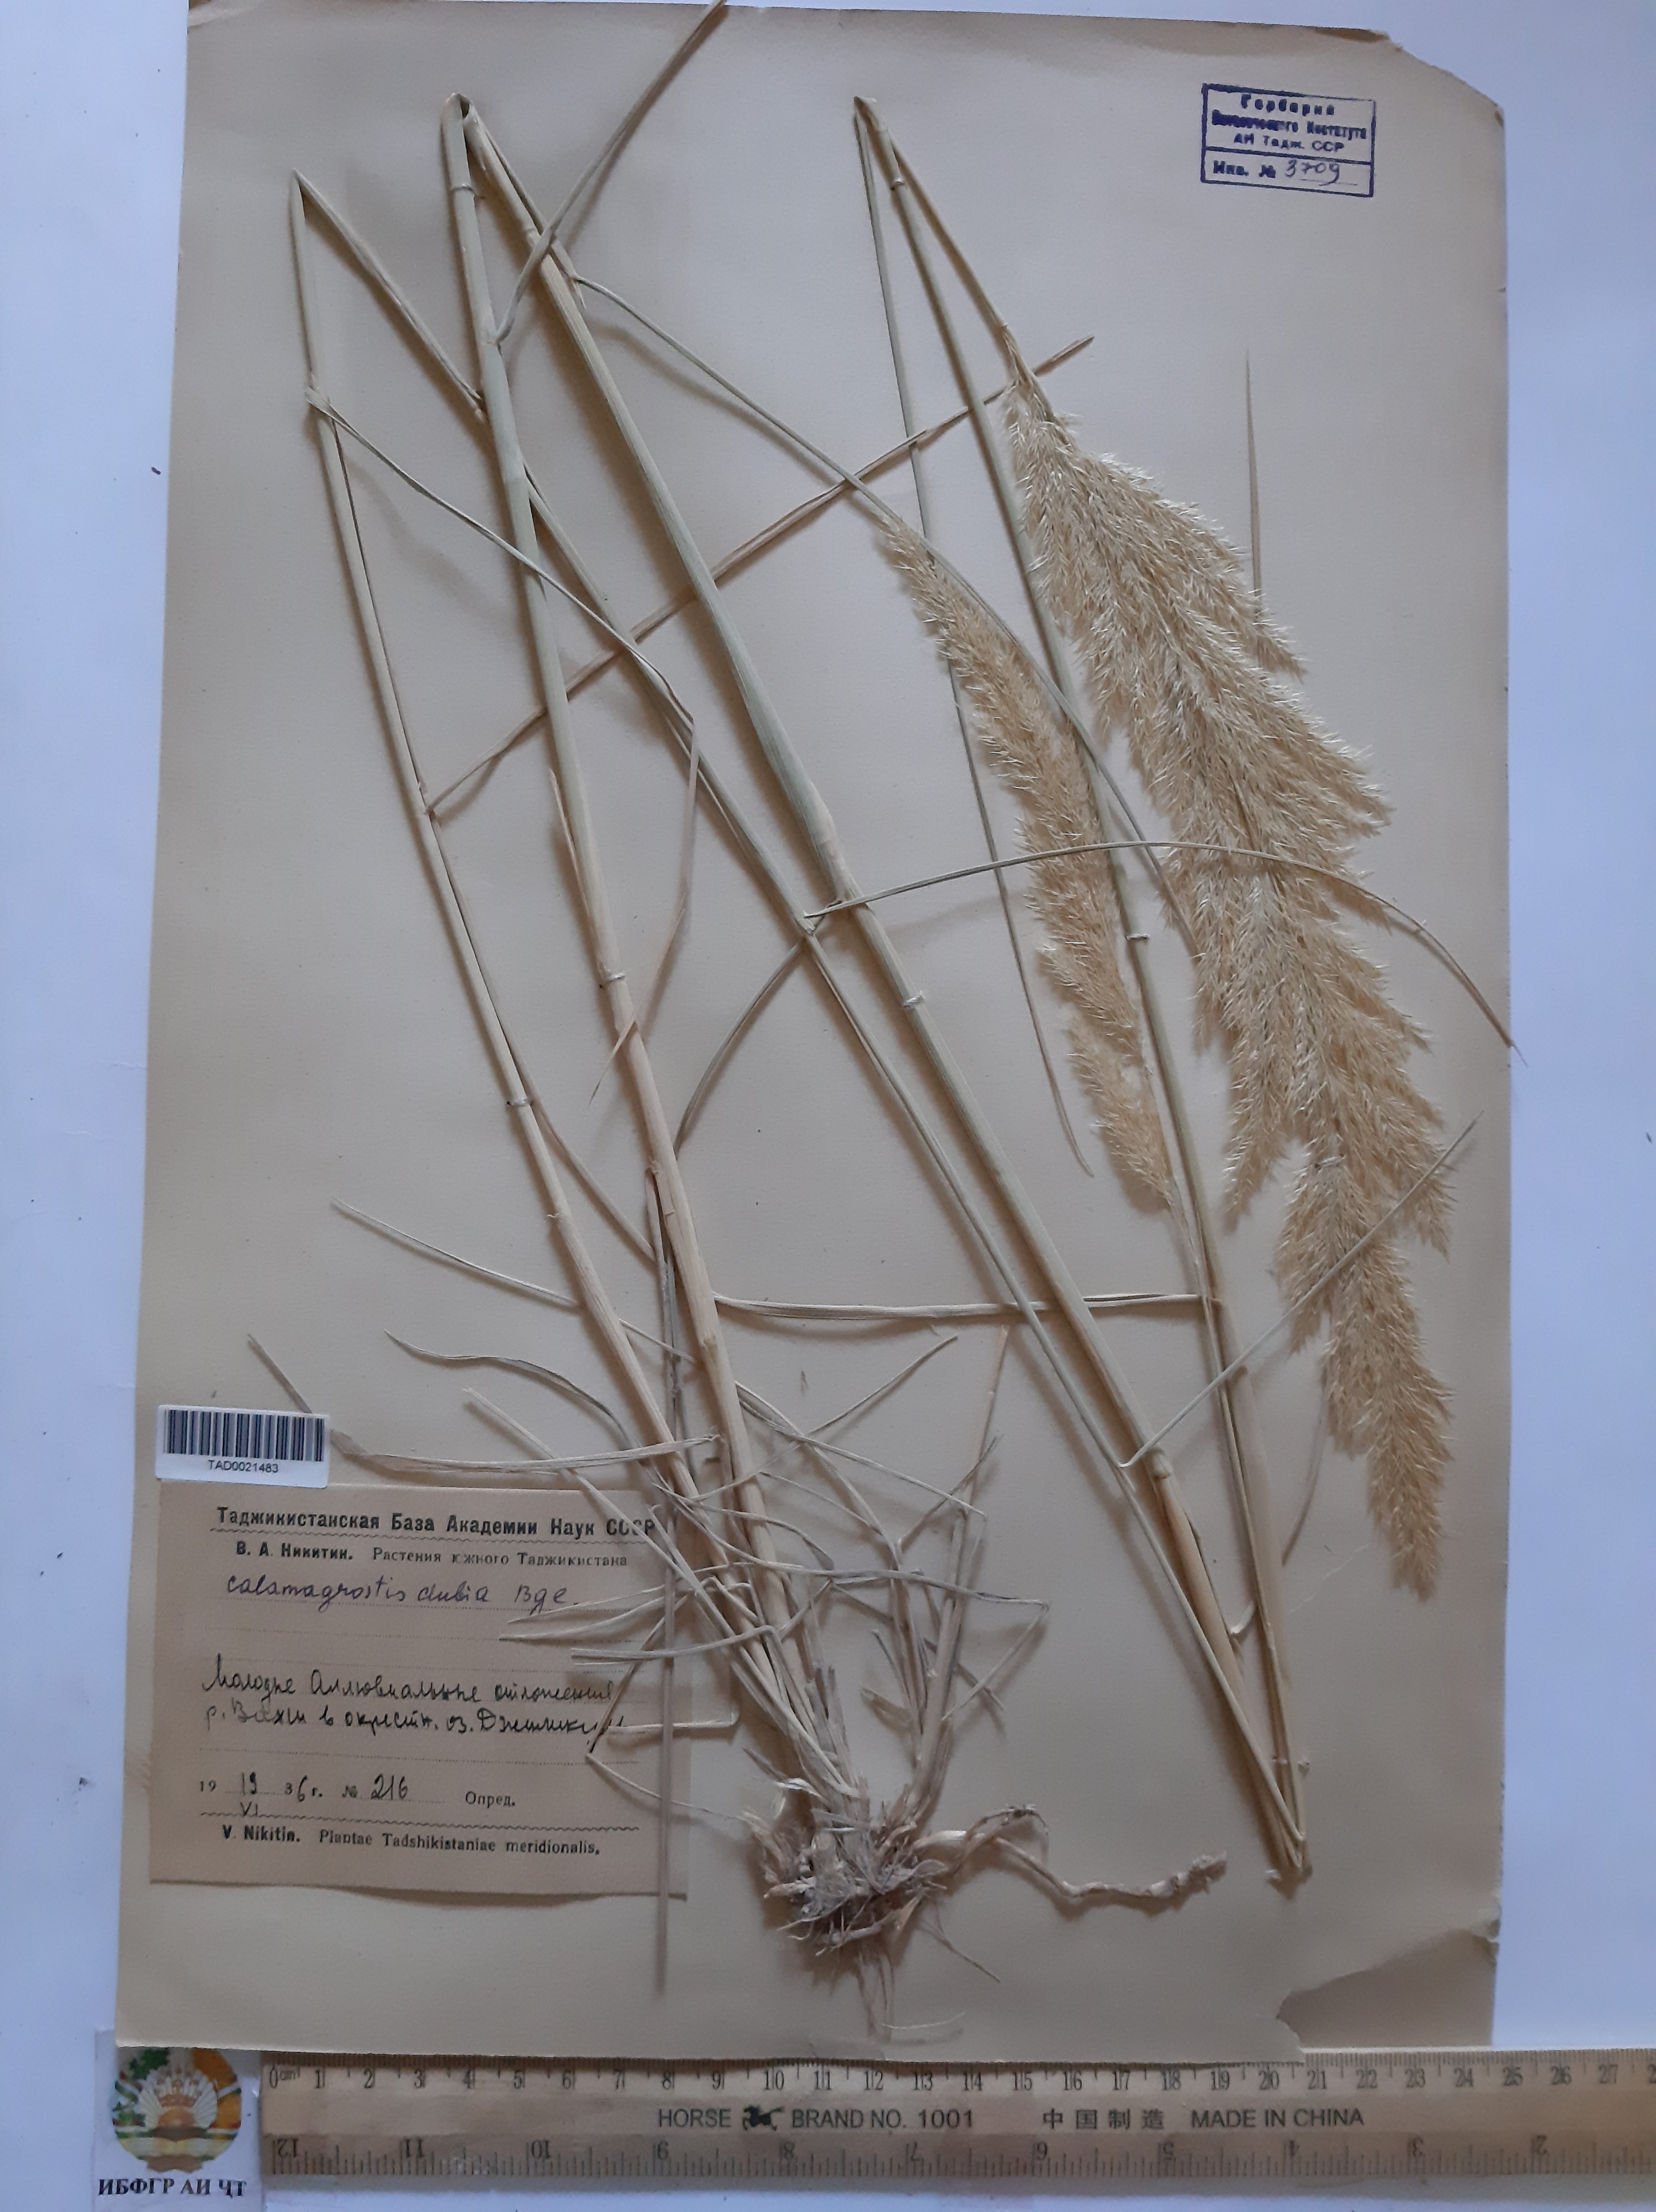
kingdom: Plantae
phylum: Tracheophyta
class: Liliopsida
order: Poales
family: Poaceae
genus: Calamagrostis
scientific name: Calamagrostis pseudophragmites
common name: Coastal small-reed
